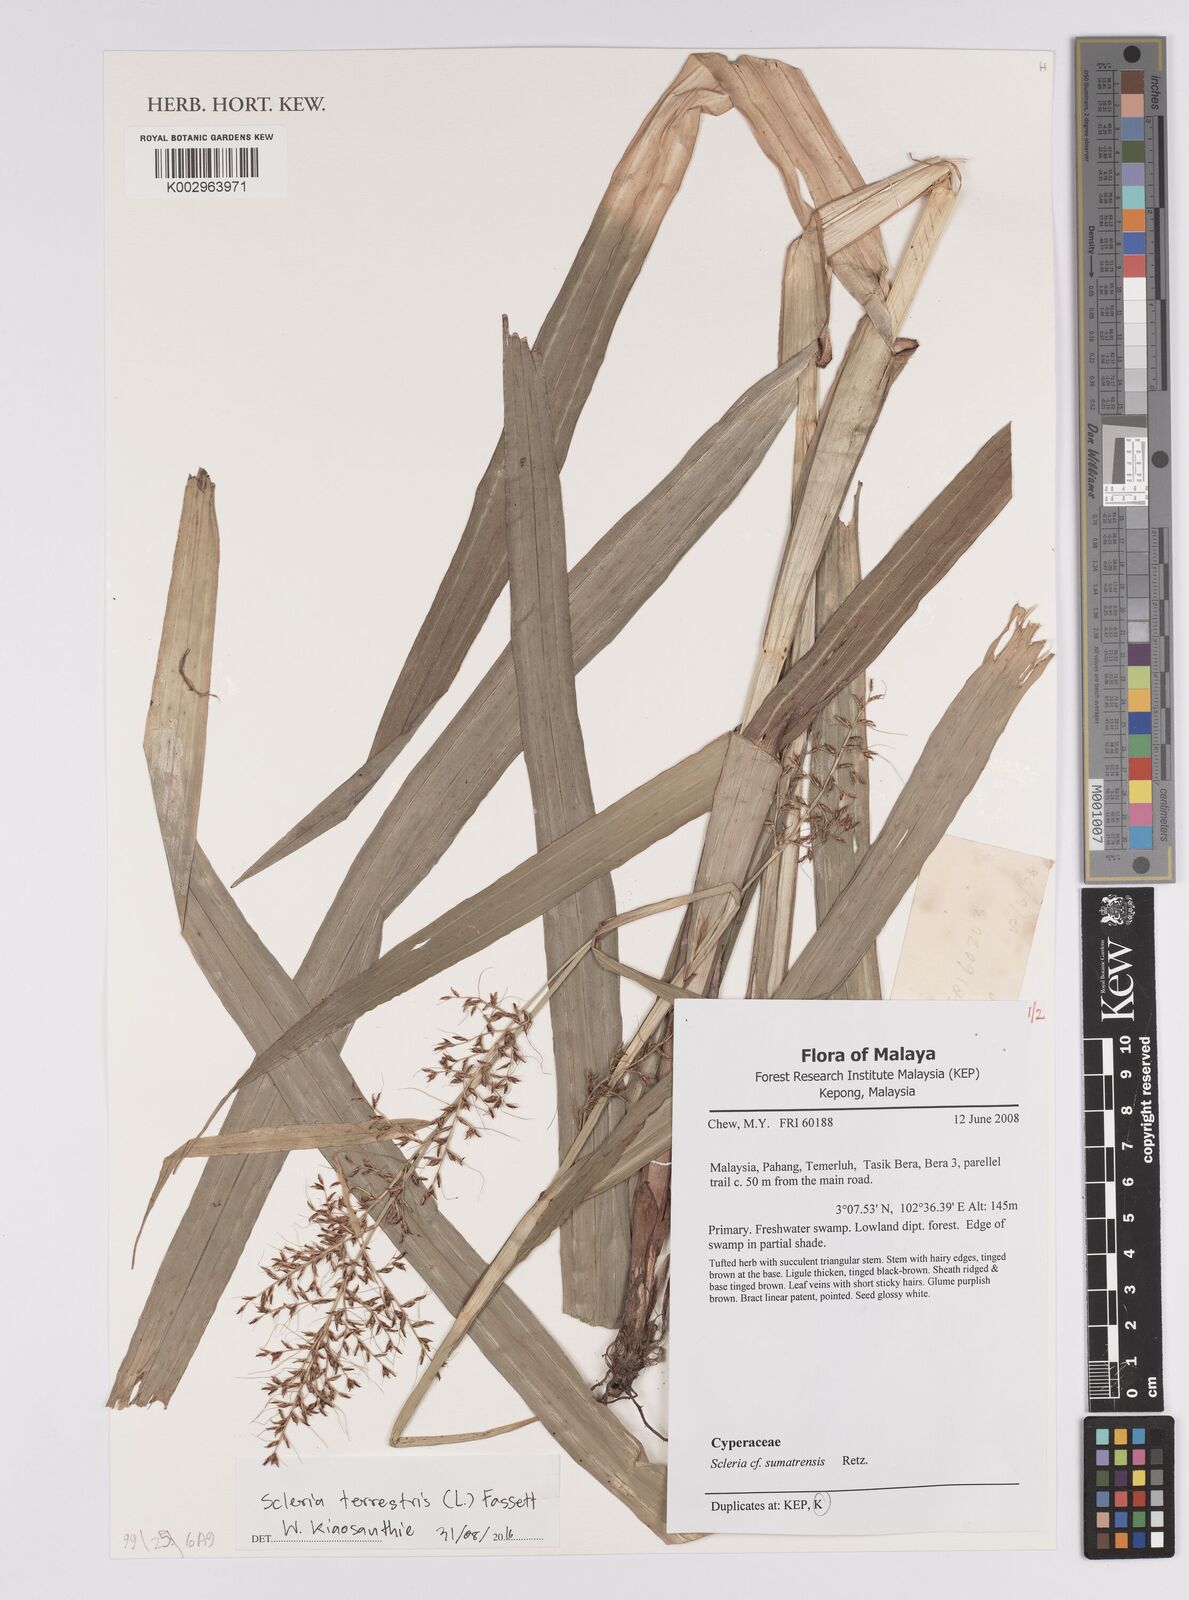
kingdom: Plantae
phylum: Tracheophyta
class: Liliopsida
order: Poales
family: Cyperaceae
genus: Scleria
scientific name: Scleria terrestris
